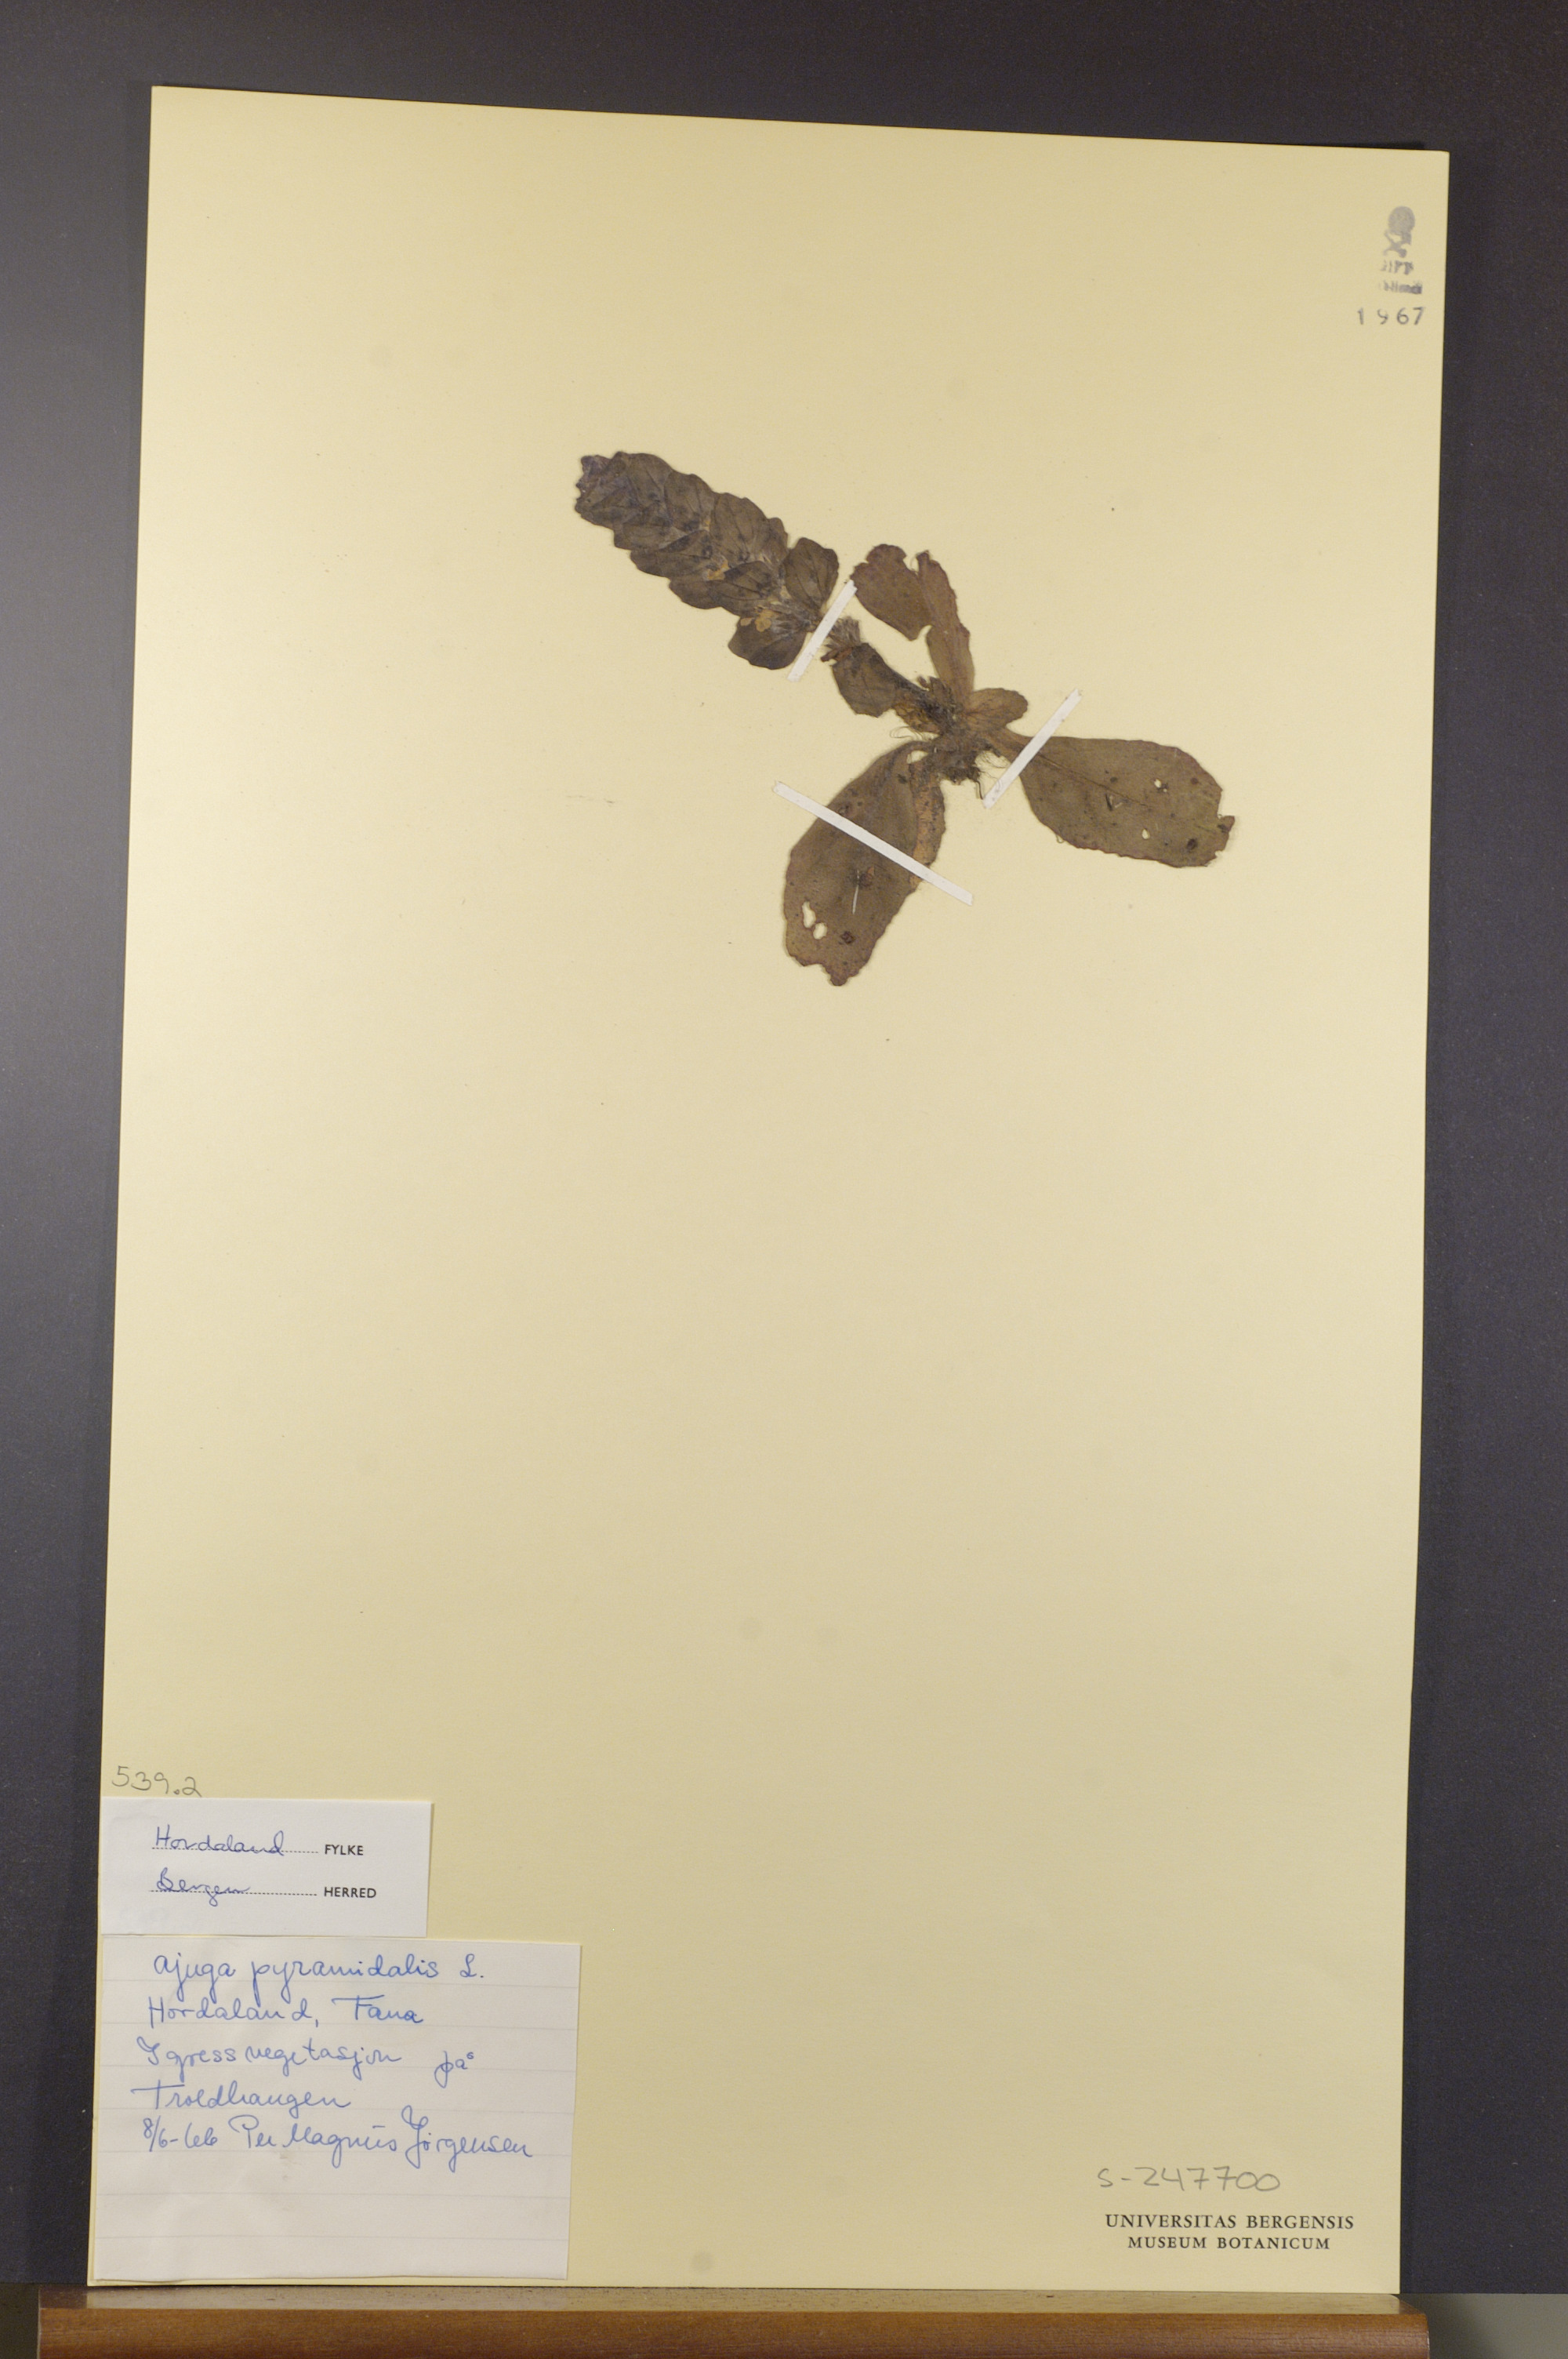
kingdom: Plantae
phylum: Tracheophyta
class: Magnoliopsida
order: Lamiales
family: Lamiaceae
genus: Ajuga
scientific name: Ajuga pyramidalis
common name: Pyramid bugle
